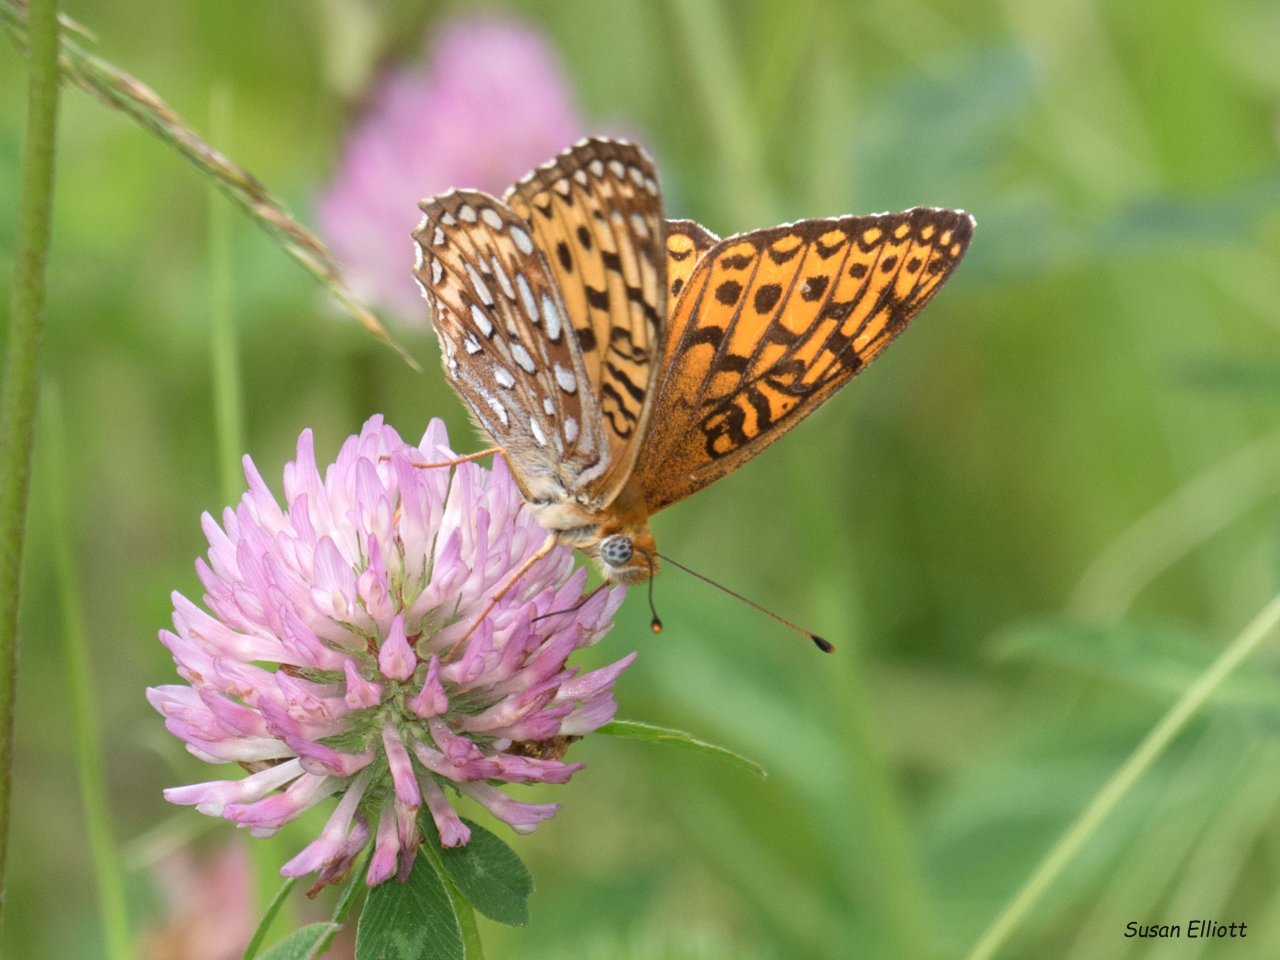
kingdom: Animalia
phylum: Arthropoda
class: Insecta
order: Lepidoptera
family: Nymphalidae
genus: Speyeria
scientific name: Speyeria atlantis
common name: Atlantis Fritillary
